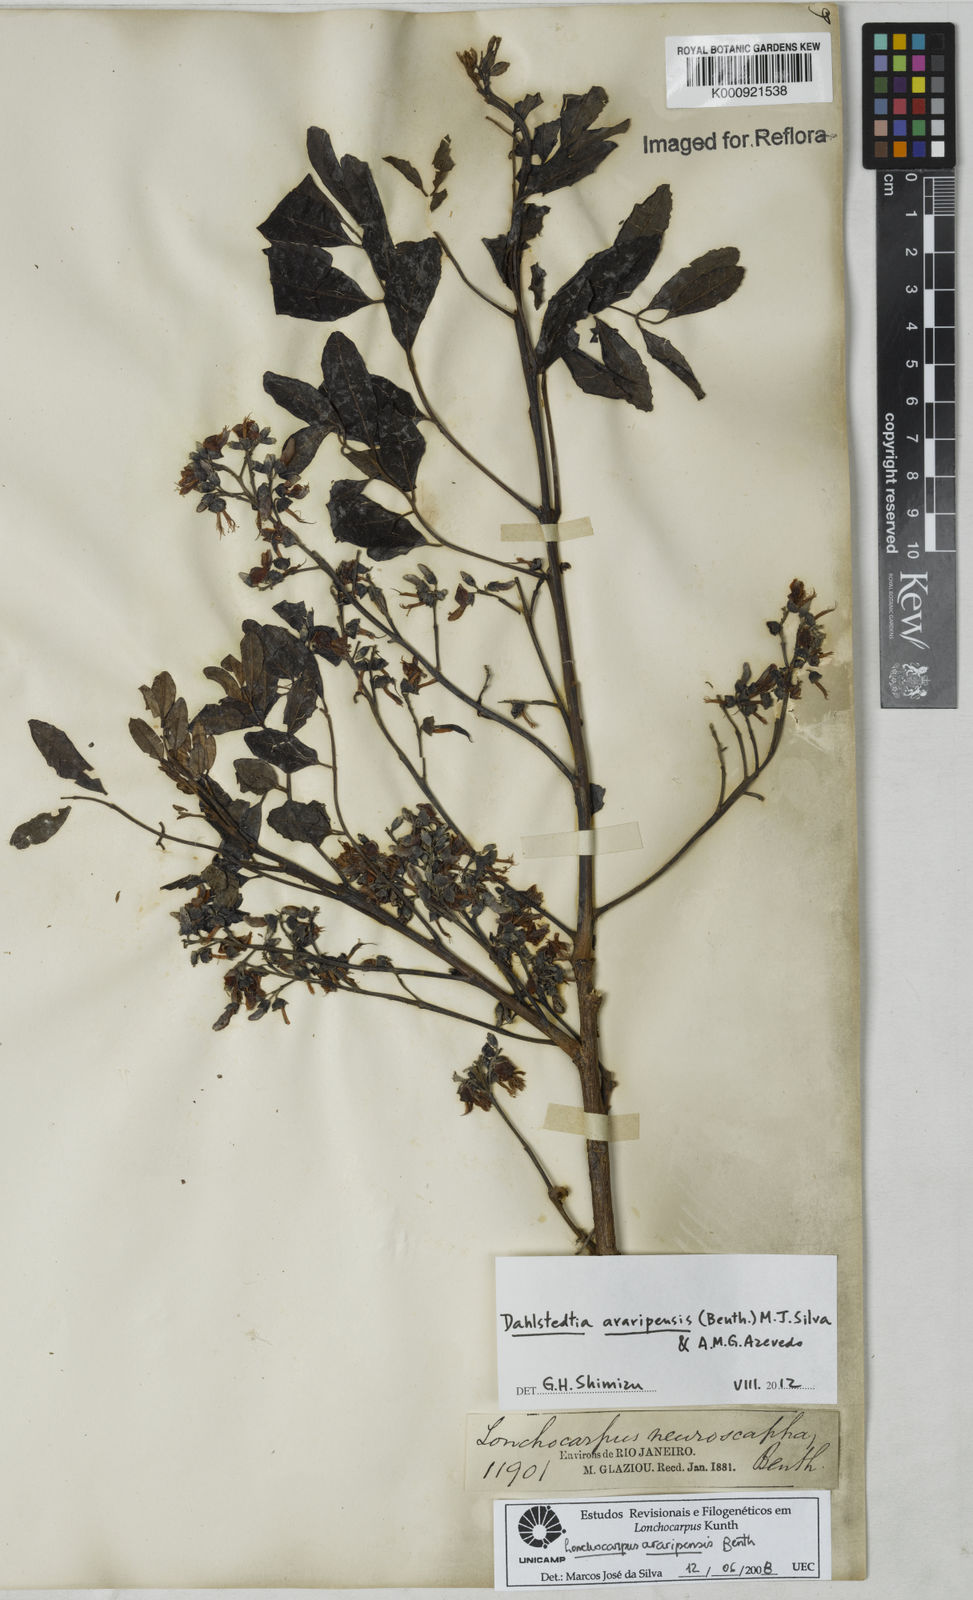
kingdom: Plantae
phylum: Tracheophyta
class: Magnoliopsida
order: Fabales
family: Fabaceae
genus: Dahlstedtia
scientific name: Dahlstedtia araripensis
